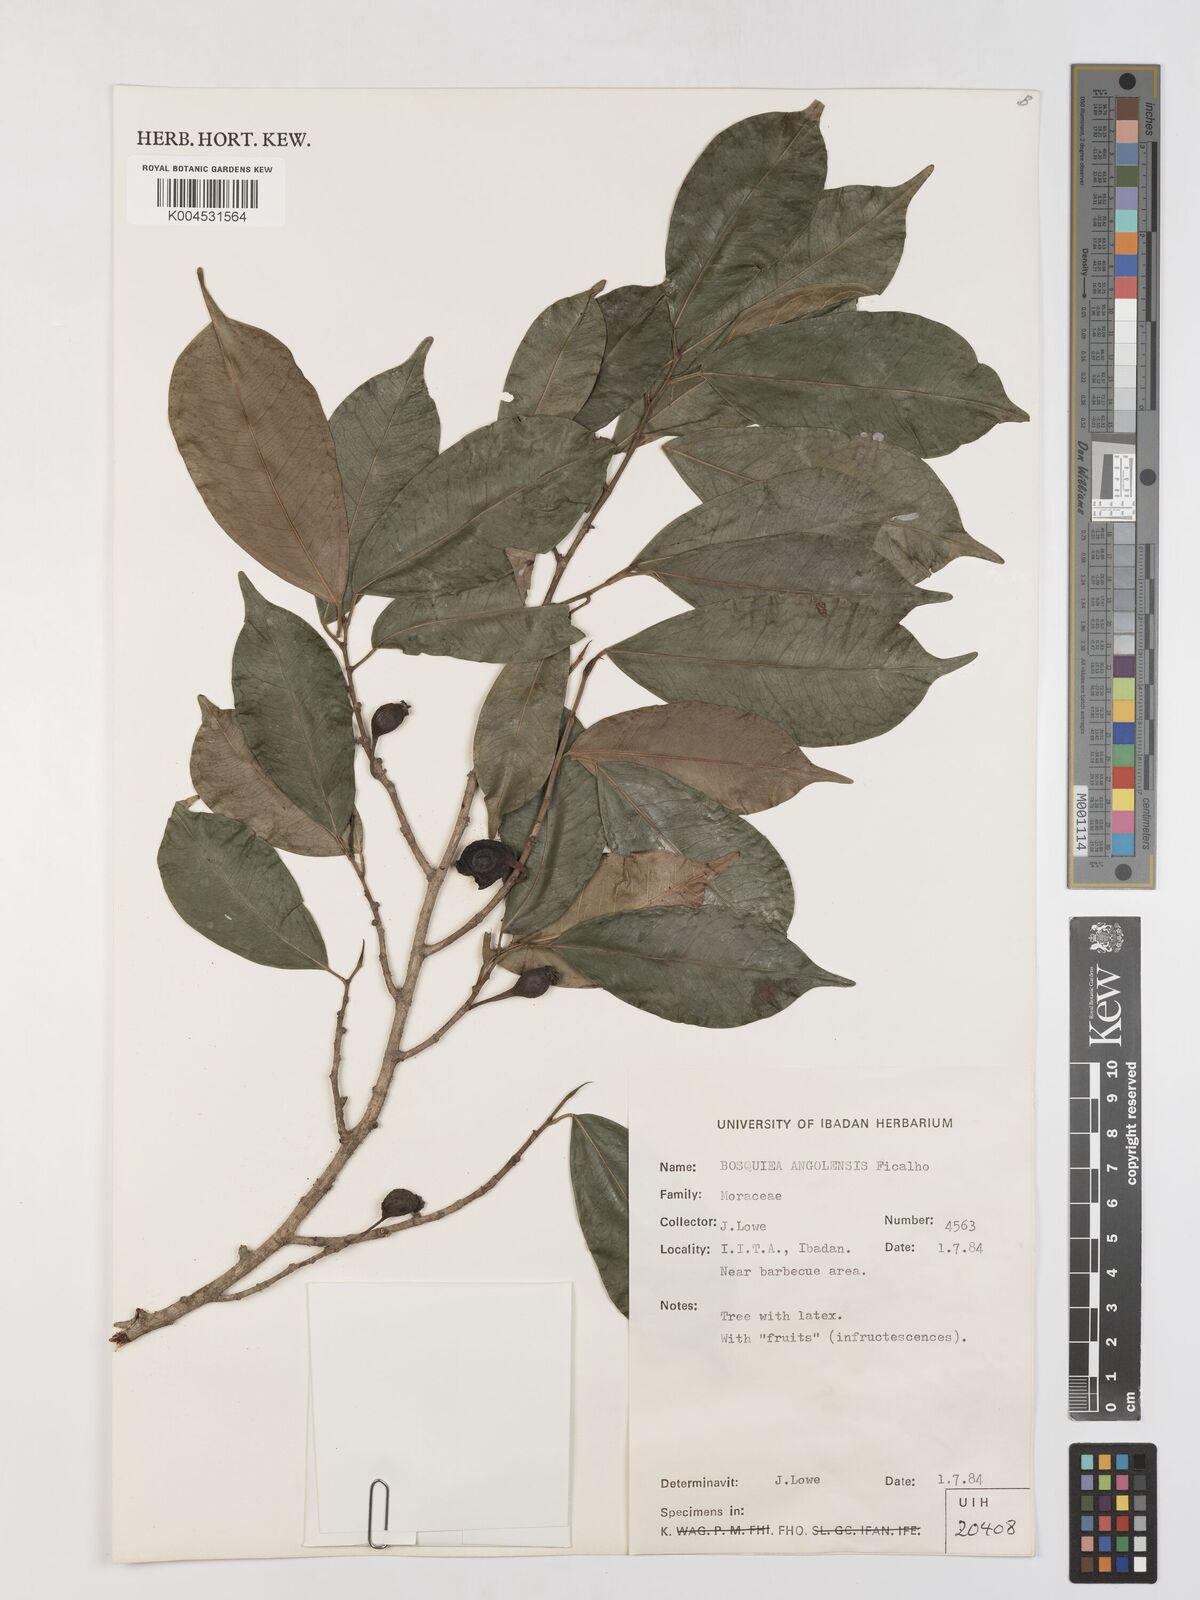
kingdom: Plantae
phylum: Tracheophyta
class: Magnoliopsida
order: Rosales
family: Moraceae
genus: Trilepisium
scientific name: Trilepisium madagascariense
